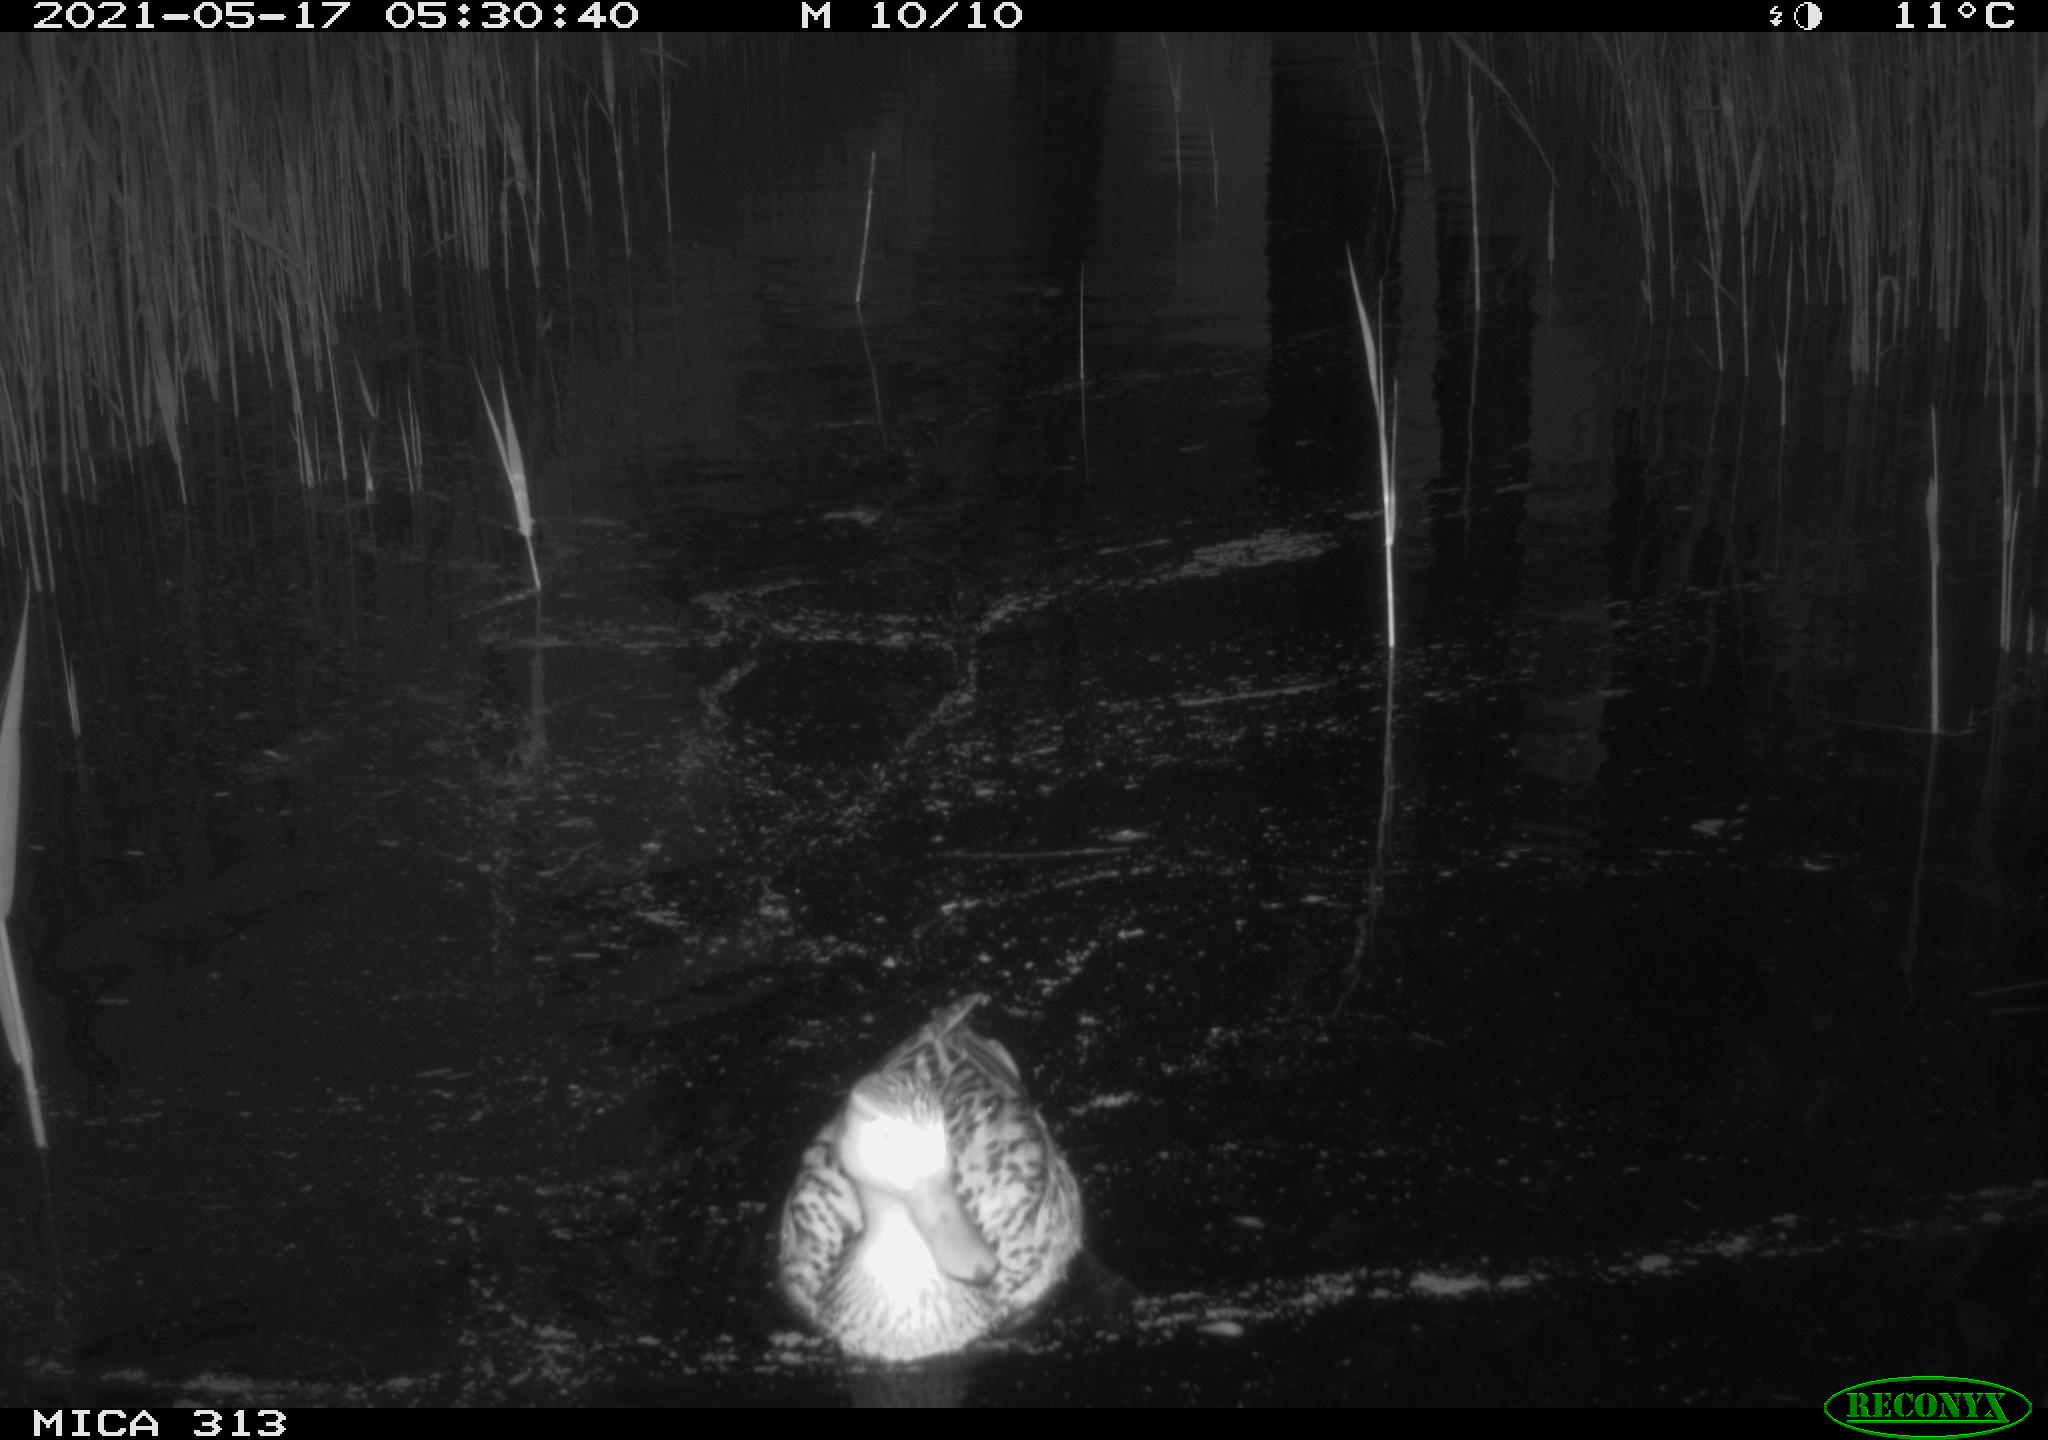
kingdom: Animalia
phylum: Chordata
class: Aves
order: Anseriformes
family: Anatidae
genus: Mareca
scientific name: Mareca strepera
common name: Gadwall
